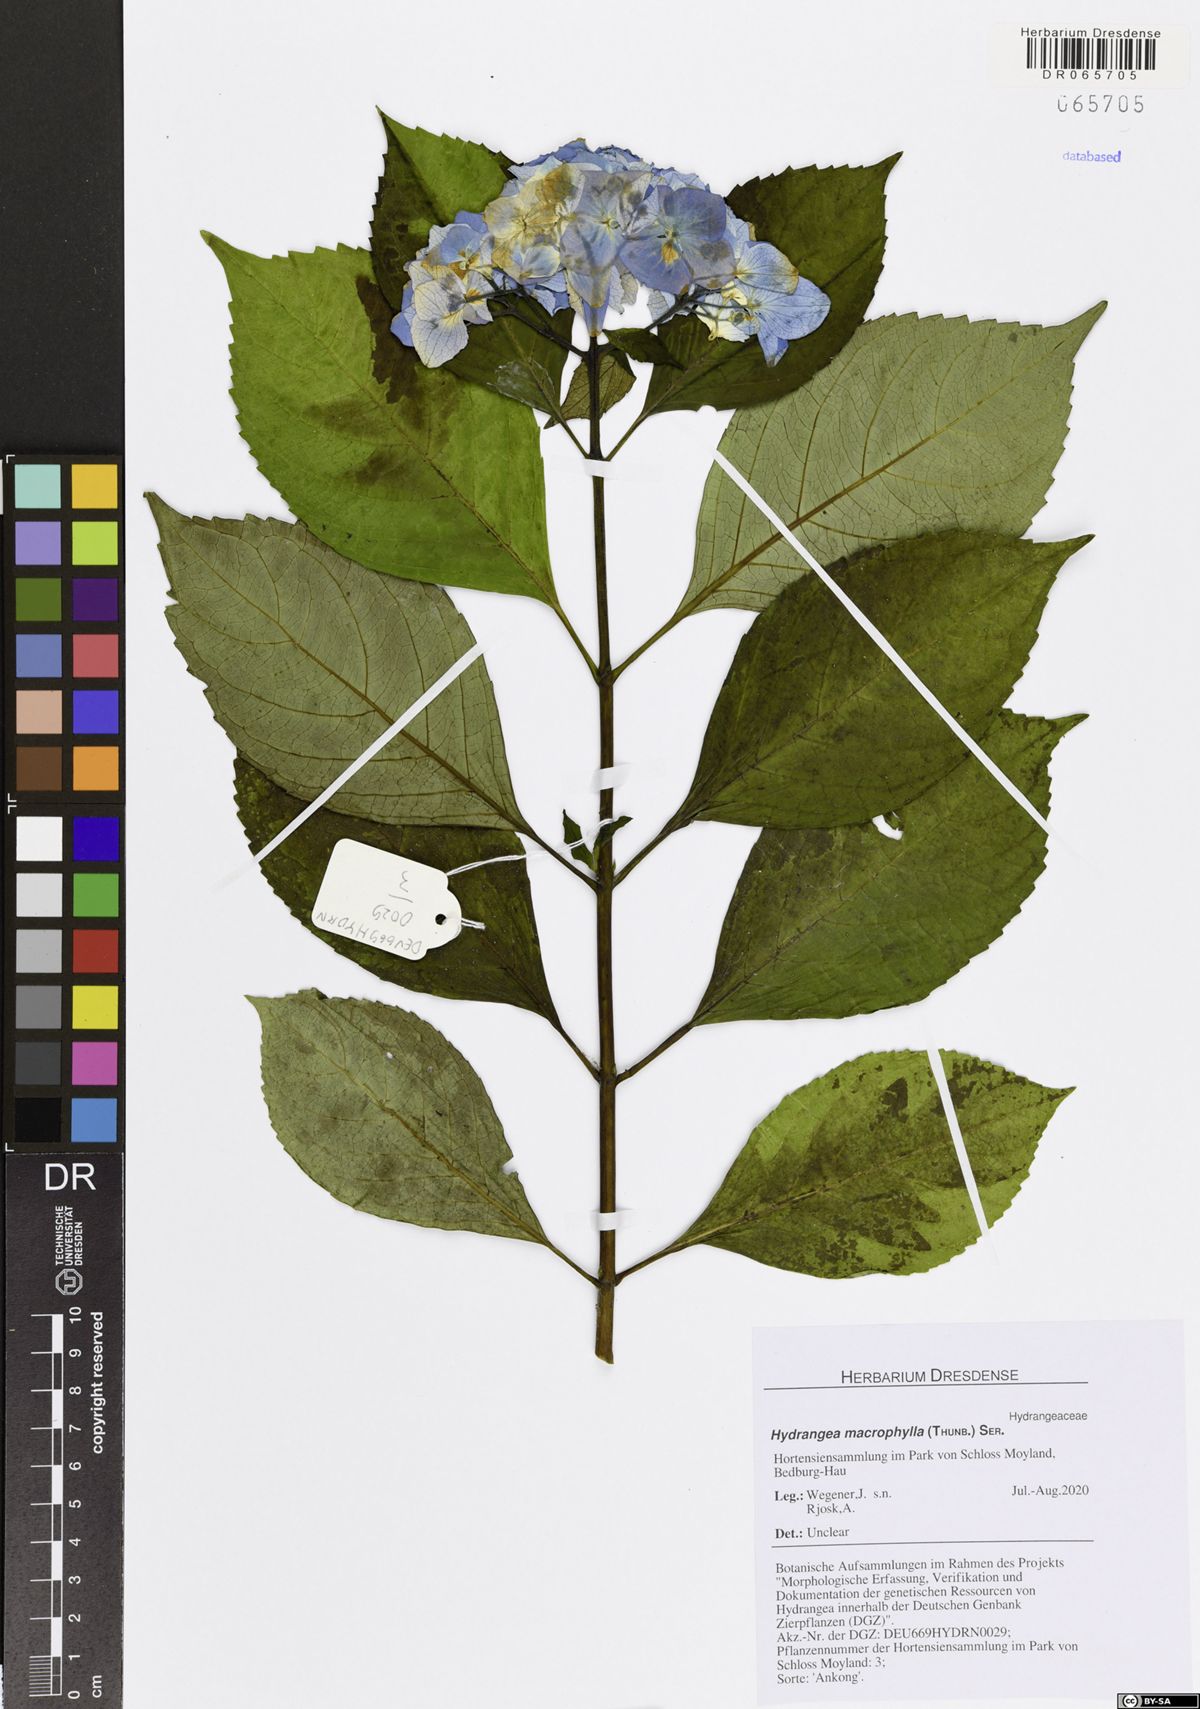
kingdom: Plantae
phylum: Tracheophyta
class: Magnoliopsida
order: Cornales
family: Hydrangeaceae
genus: Hydrangea
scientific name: Hydrangea macrophylla
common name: Hydrangea
